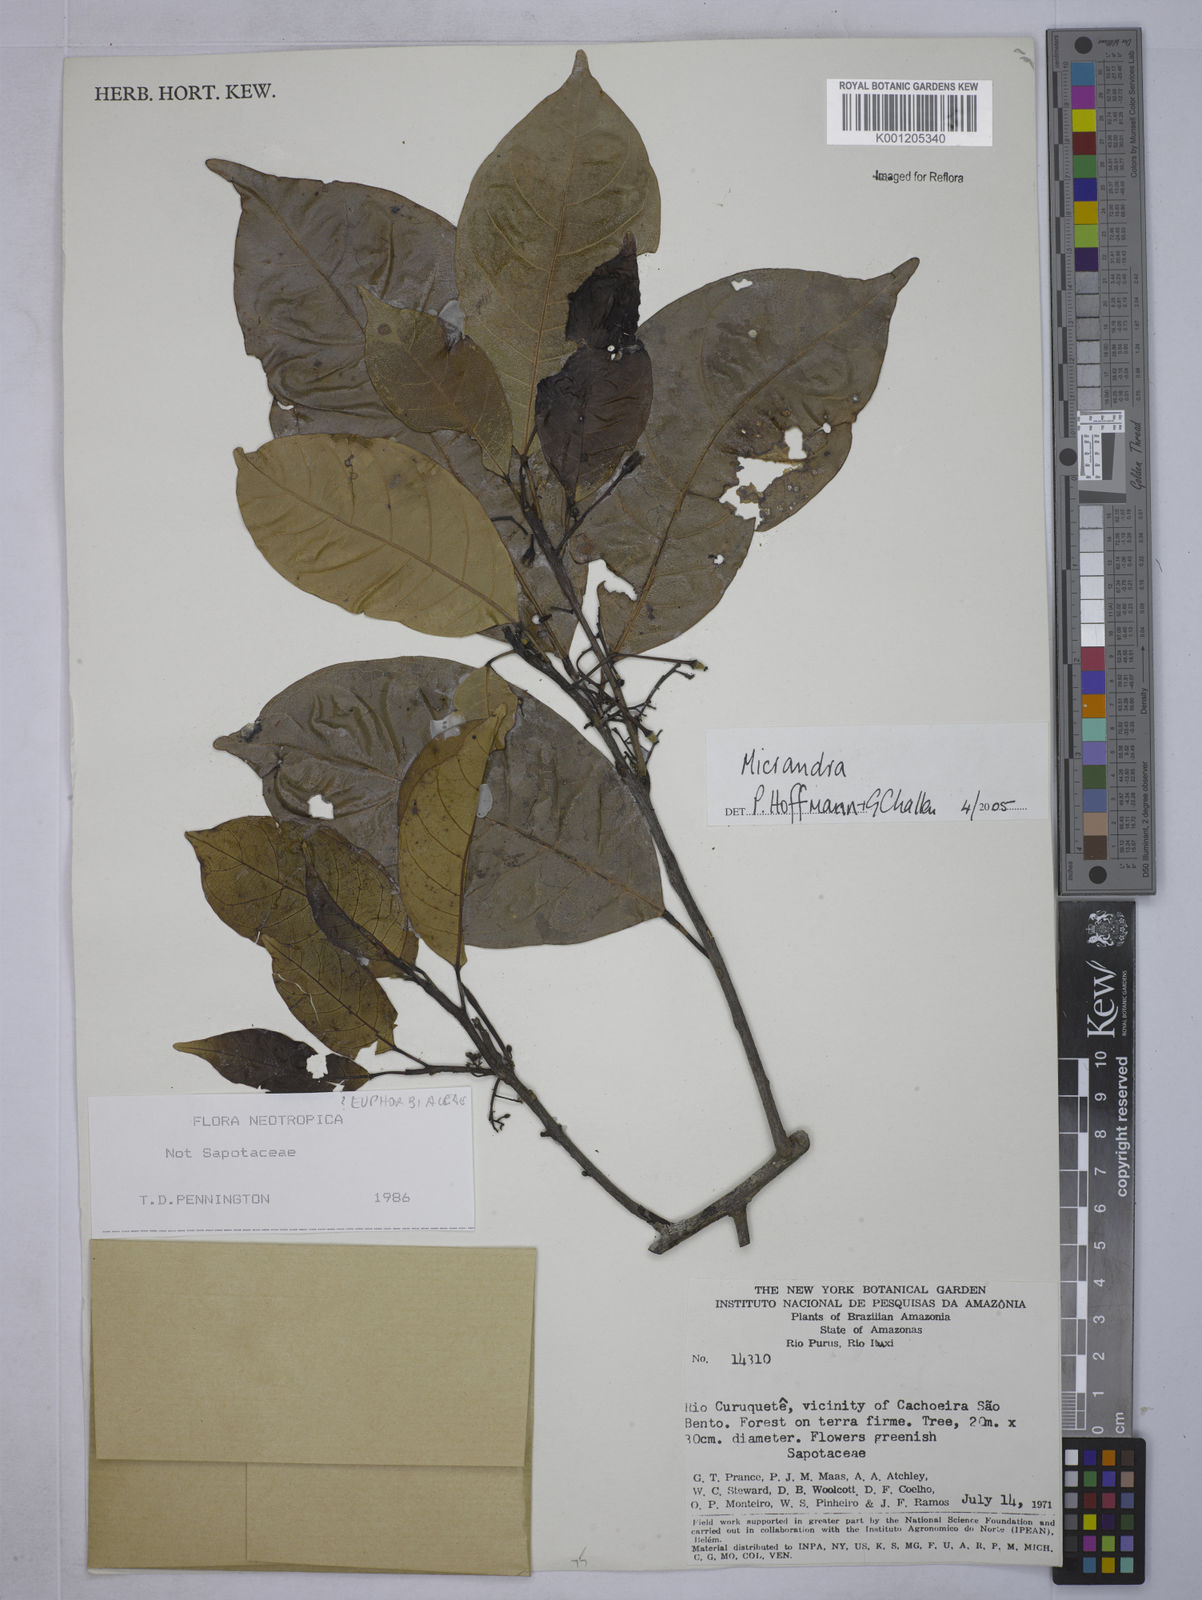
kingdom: Plantae
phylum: Tracheophyta
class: Magnoliopsida
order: Malpighiales
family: Euphorbiaceae
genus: Micrandra
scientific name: Micrandra
